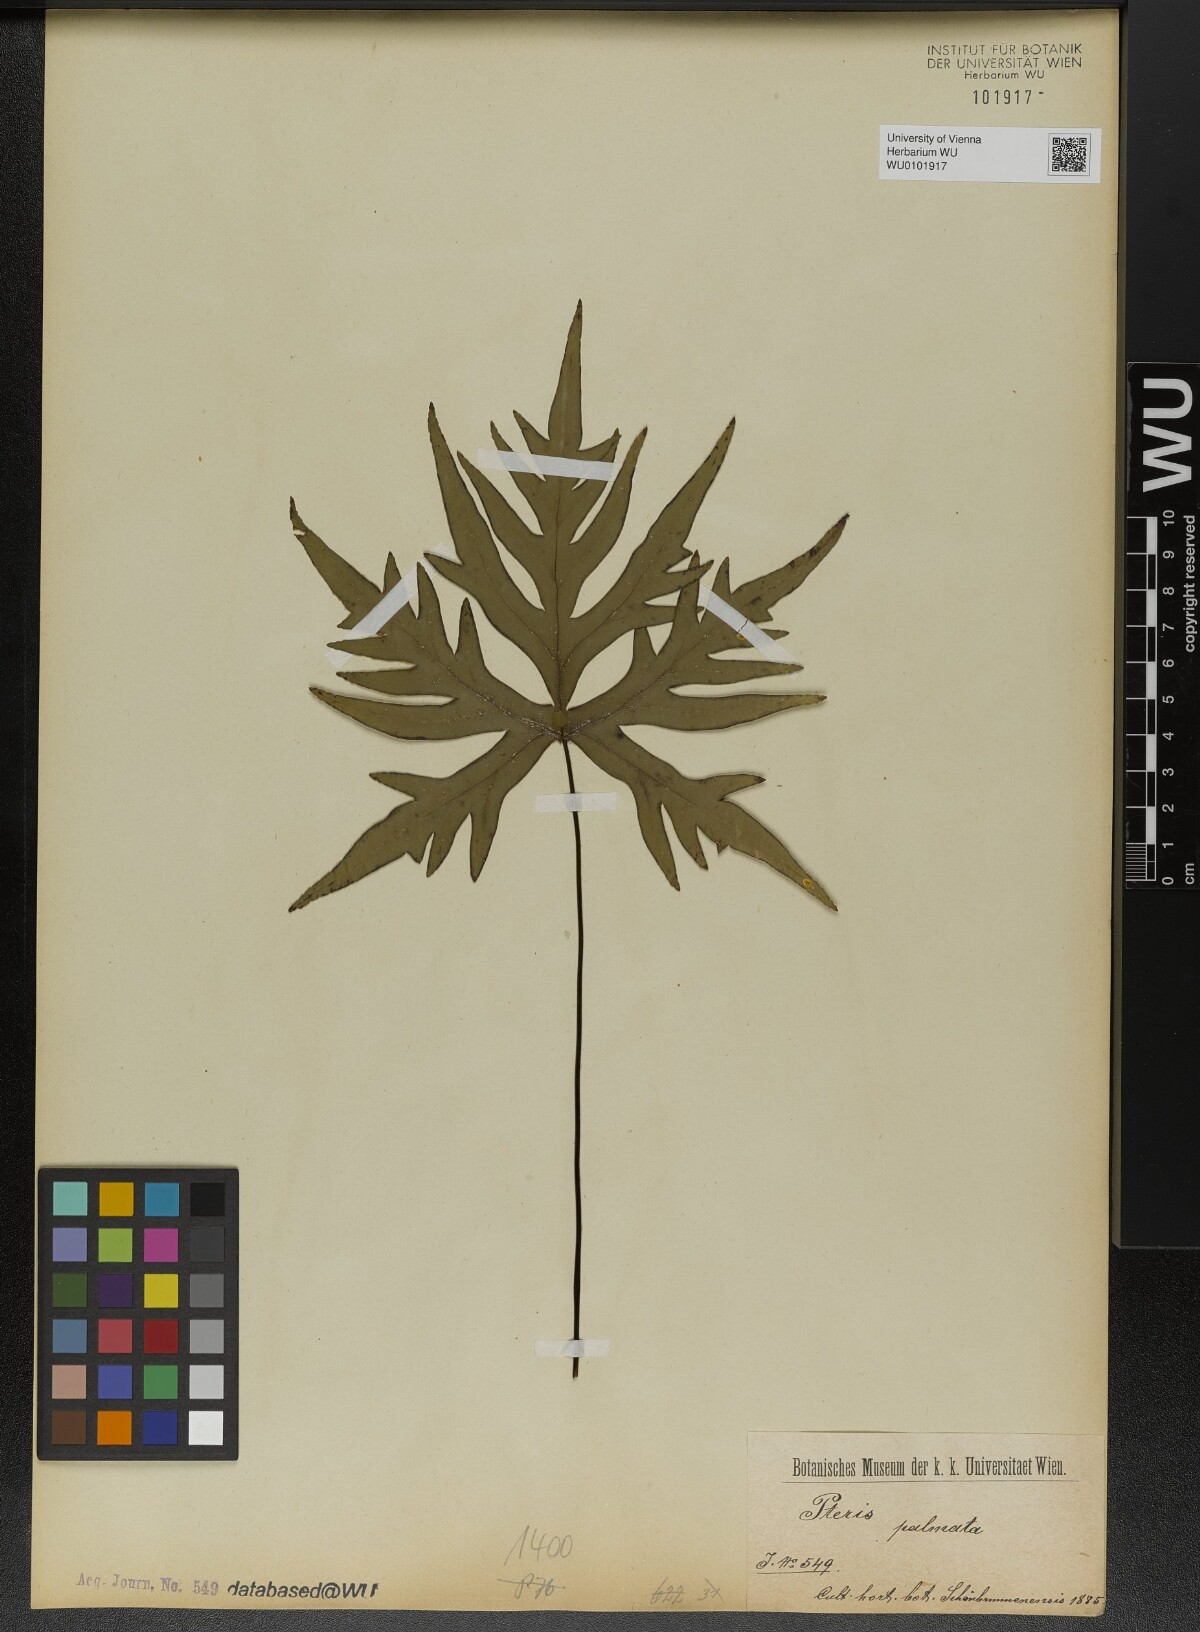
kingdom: Plantae
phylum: Tracheophyta
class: Polypodiopsida
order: Polypodiales
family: Pteridaceae
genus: Doryopteris
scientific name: Doryopteris palmata
